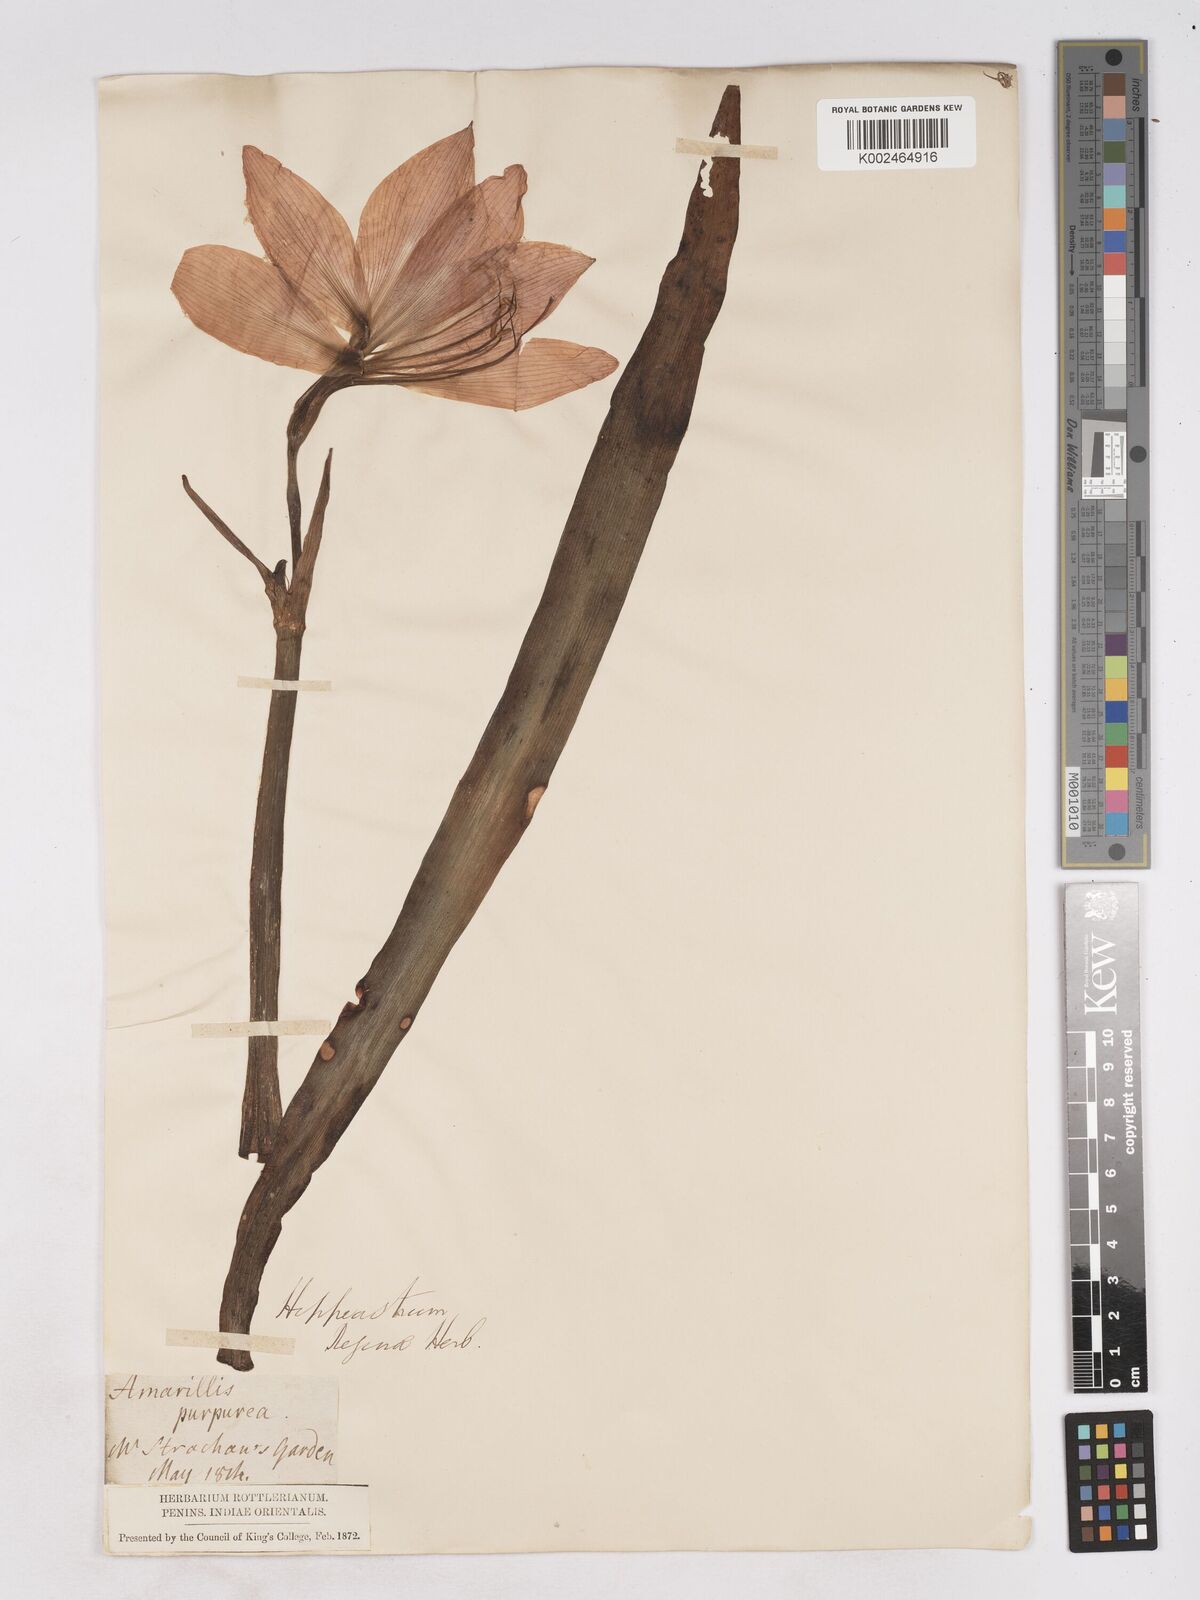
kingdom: Plantae
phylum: Tracheophyta
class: Liliopsida
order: Asparagales
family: Amaryllidaceae
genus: Hippeastrum
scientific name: Hippeastrum reginae
